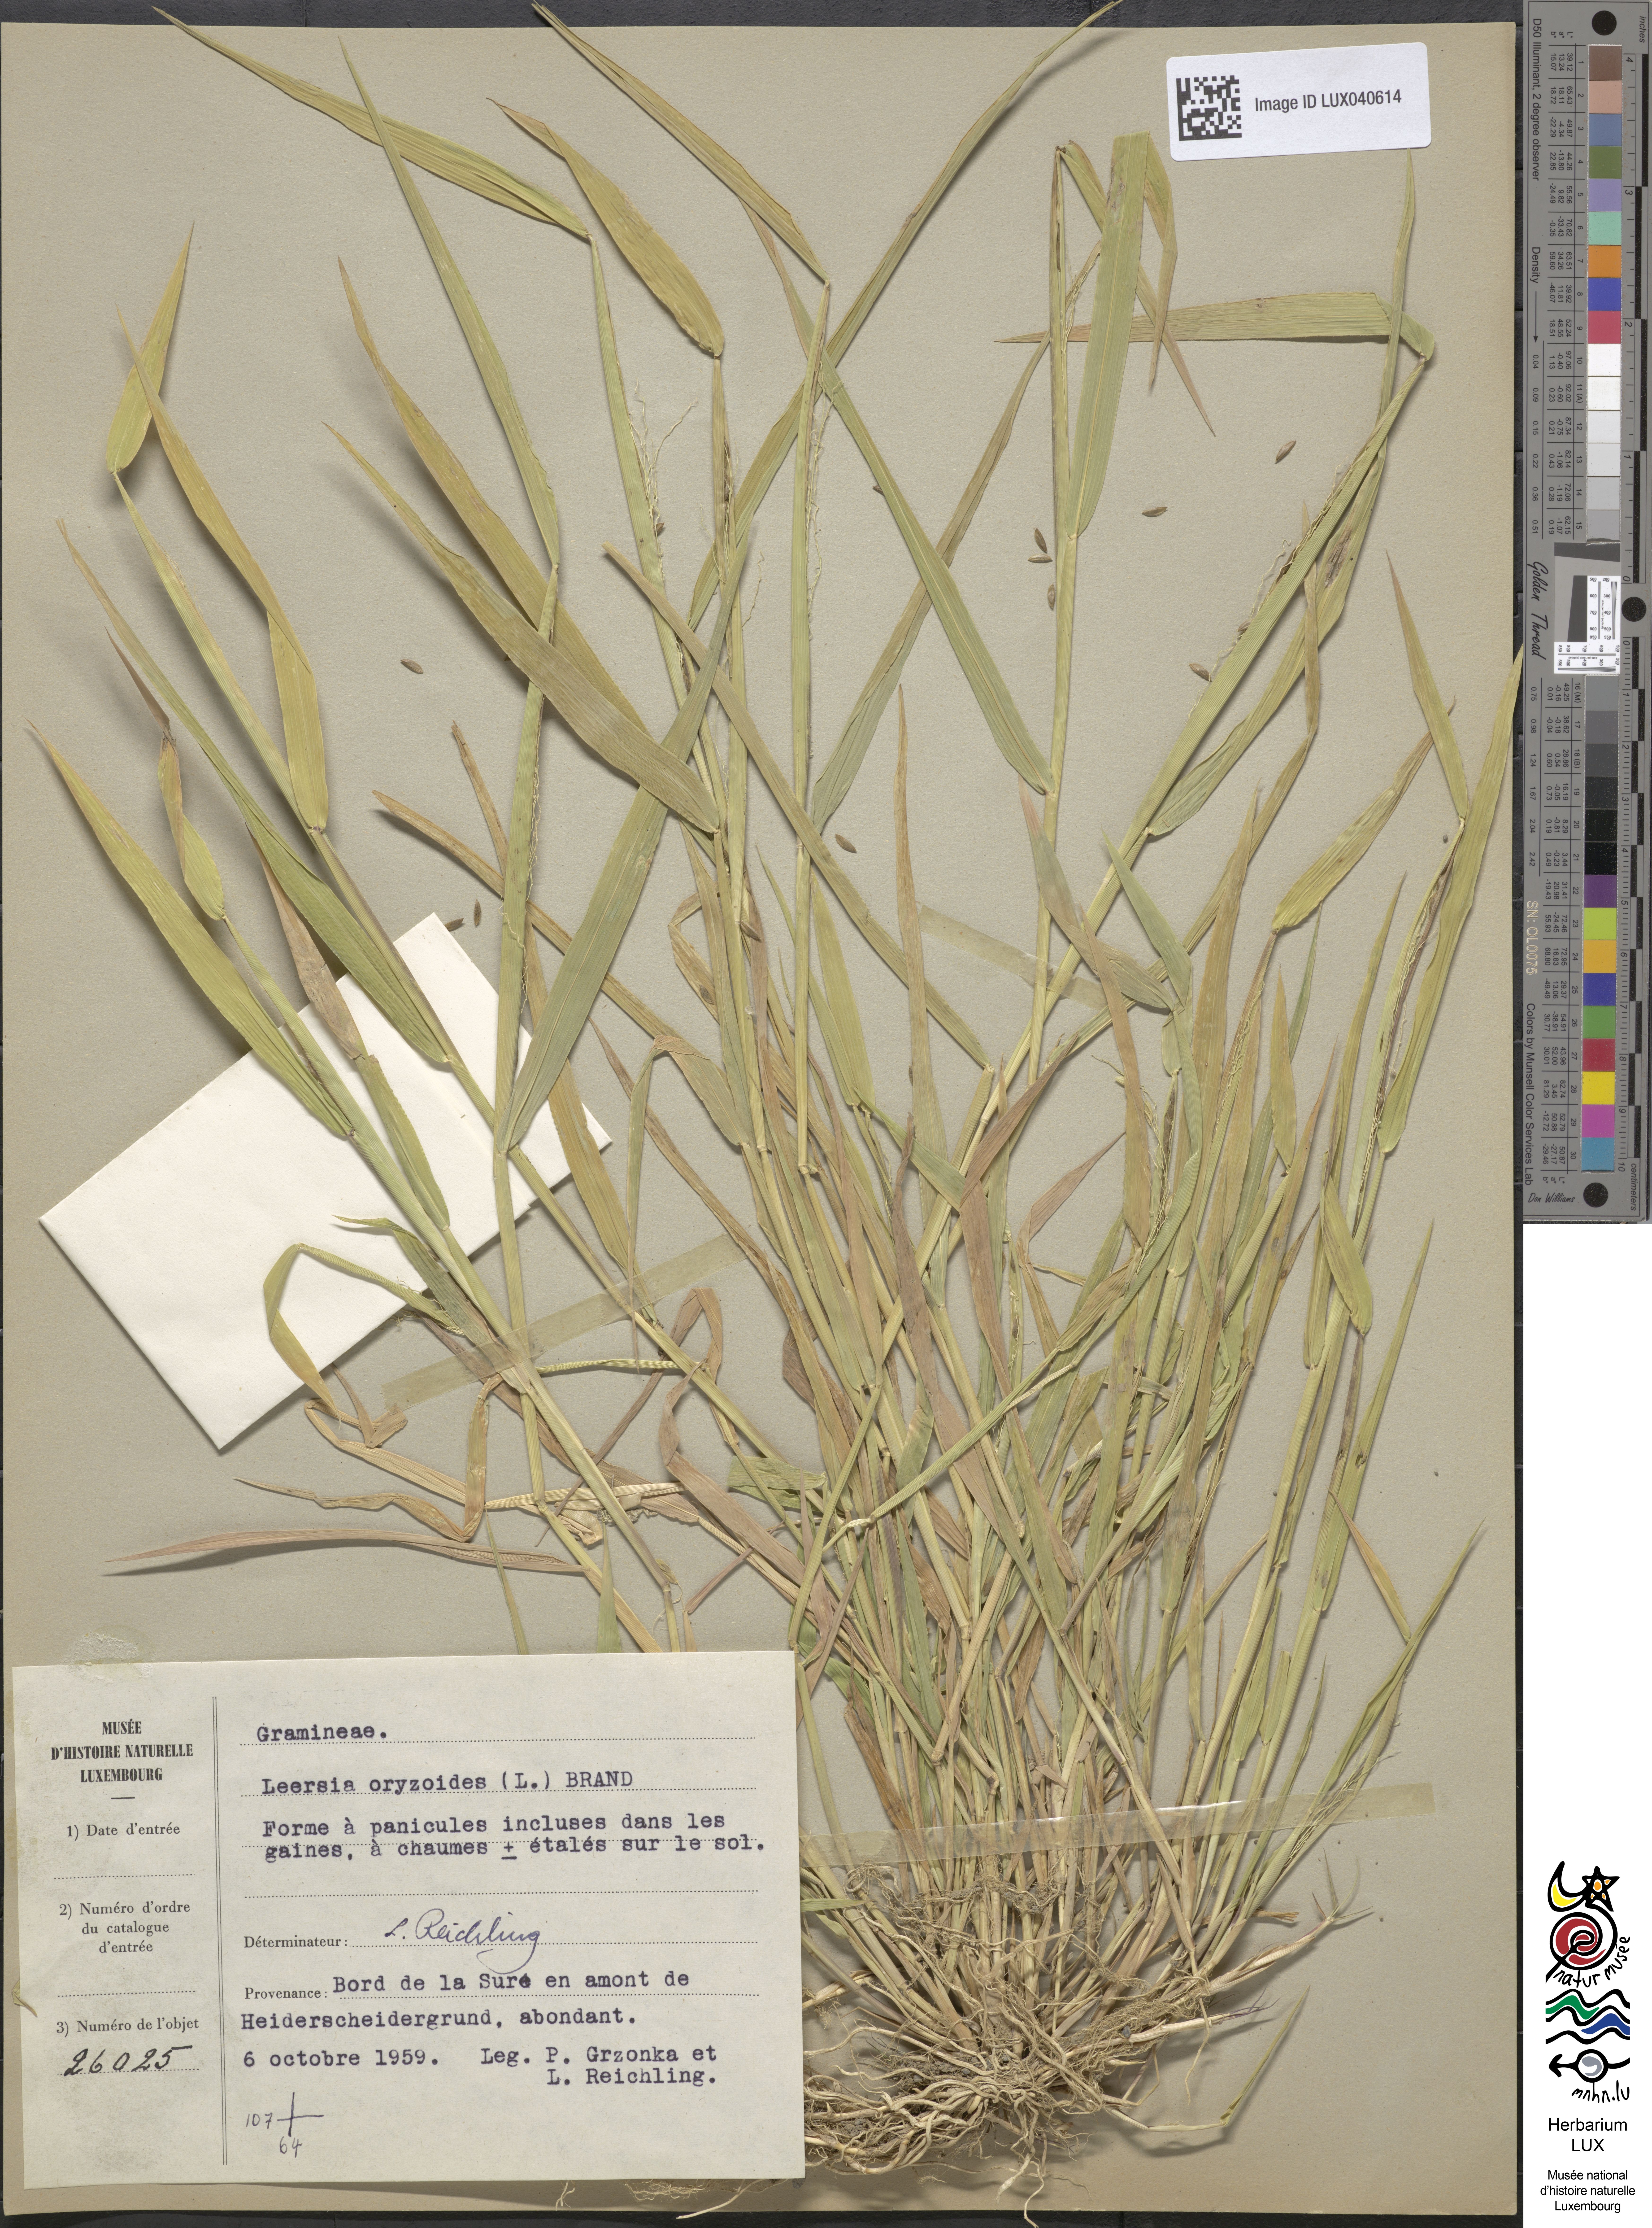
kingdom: Plantae
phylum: Tracheophyta
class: Liliopsida
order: Poales
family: Poaceae
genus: Leersia
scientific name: Leersia oryzoides
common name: Cut-grass
